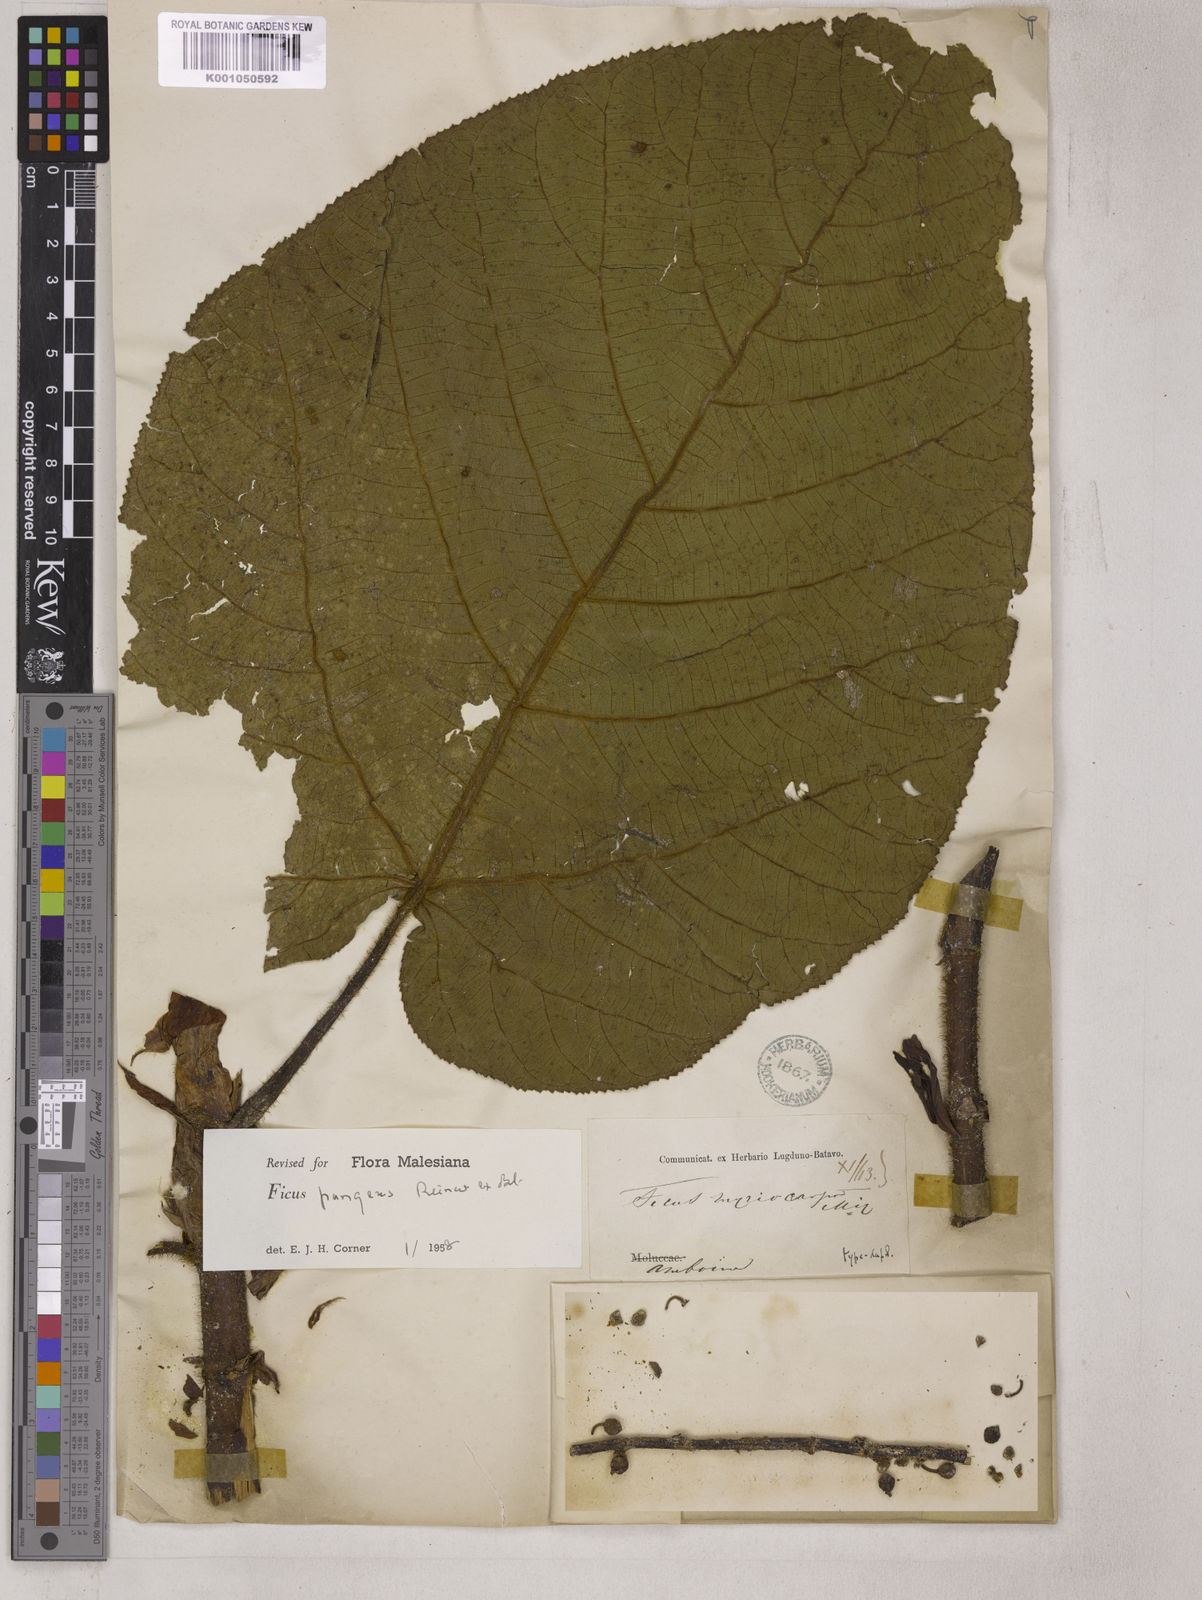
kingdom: Plantae
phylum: Tracheophyta
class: Magnoliopsida
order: Rosales
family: Moraceae
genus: Ficus
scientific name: Ficus pungens
